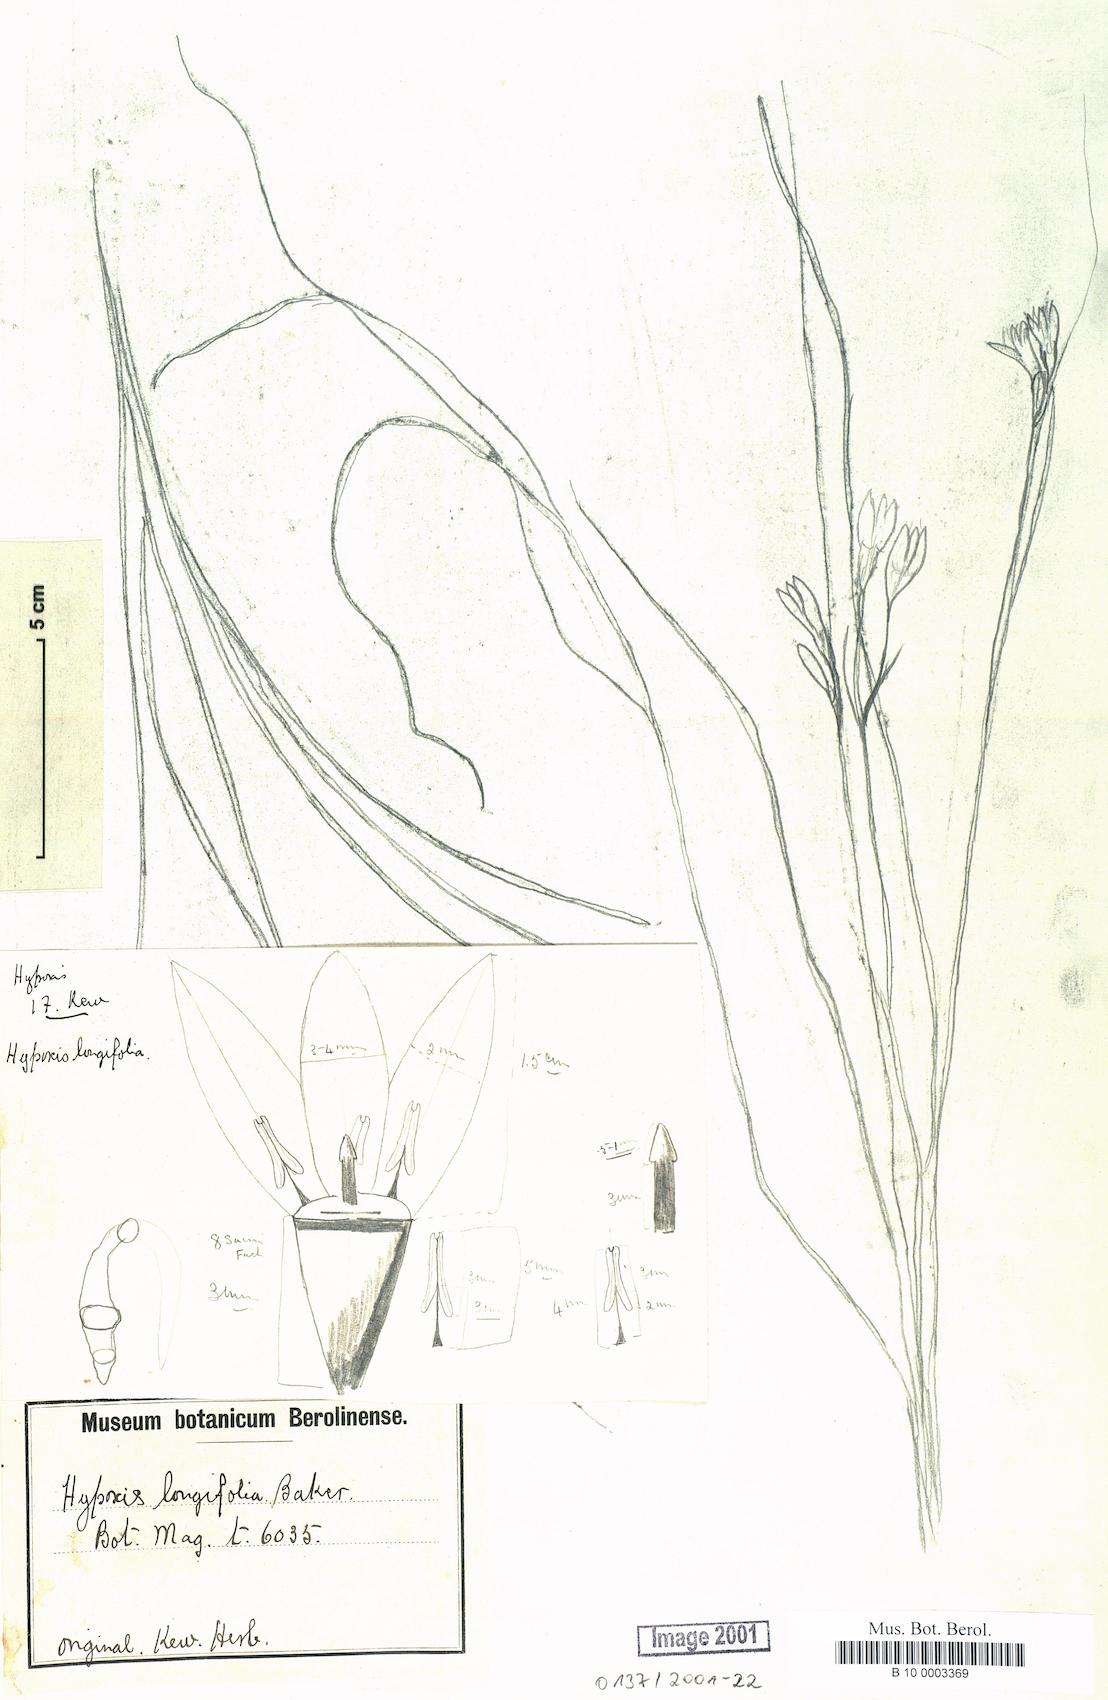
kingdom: Plantae
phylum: Tracheophyta
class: Liliopsida
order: Asparagales
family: Hypoxidaceae
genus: Hypoxis
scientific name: Hypoxis longifolia
